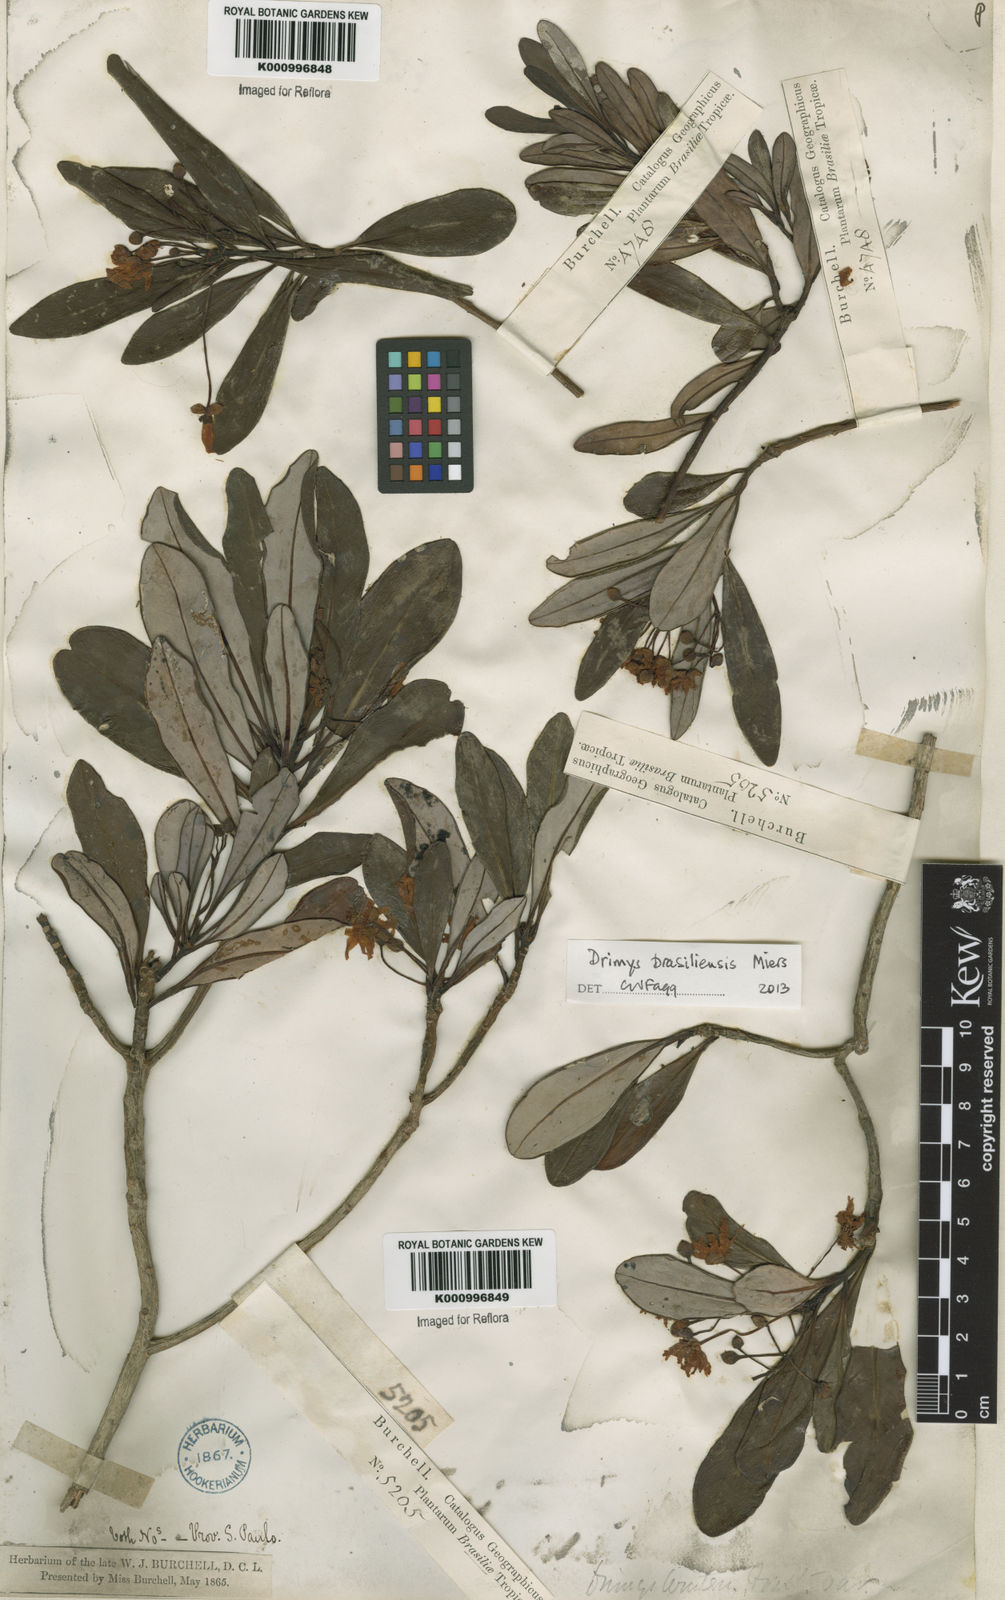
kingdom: Plantae
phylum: Tracheophyta
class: Magnoliopsida
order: Canellales
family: Winteraceae
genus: Drimys
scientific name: Drimys brasiliensis
